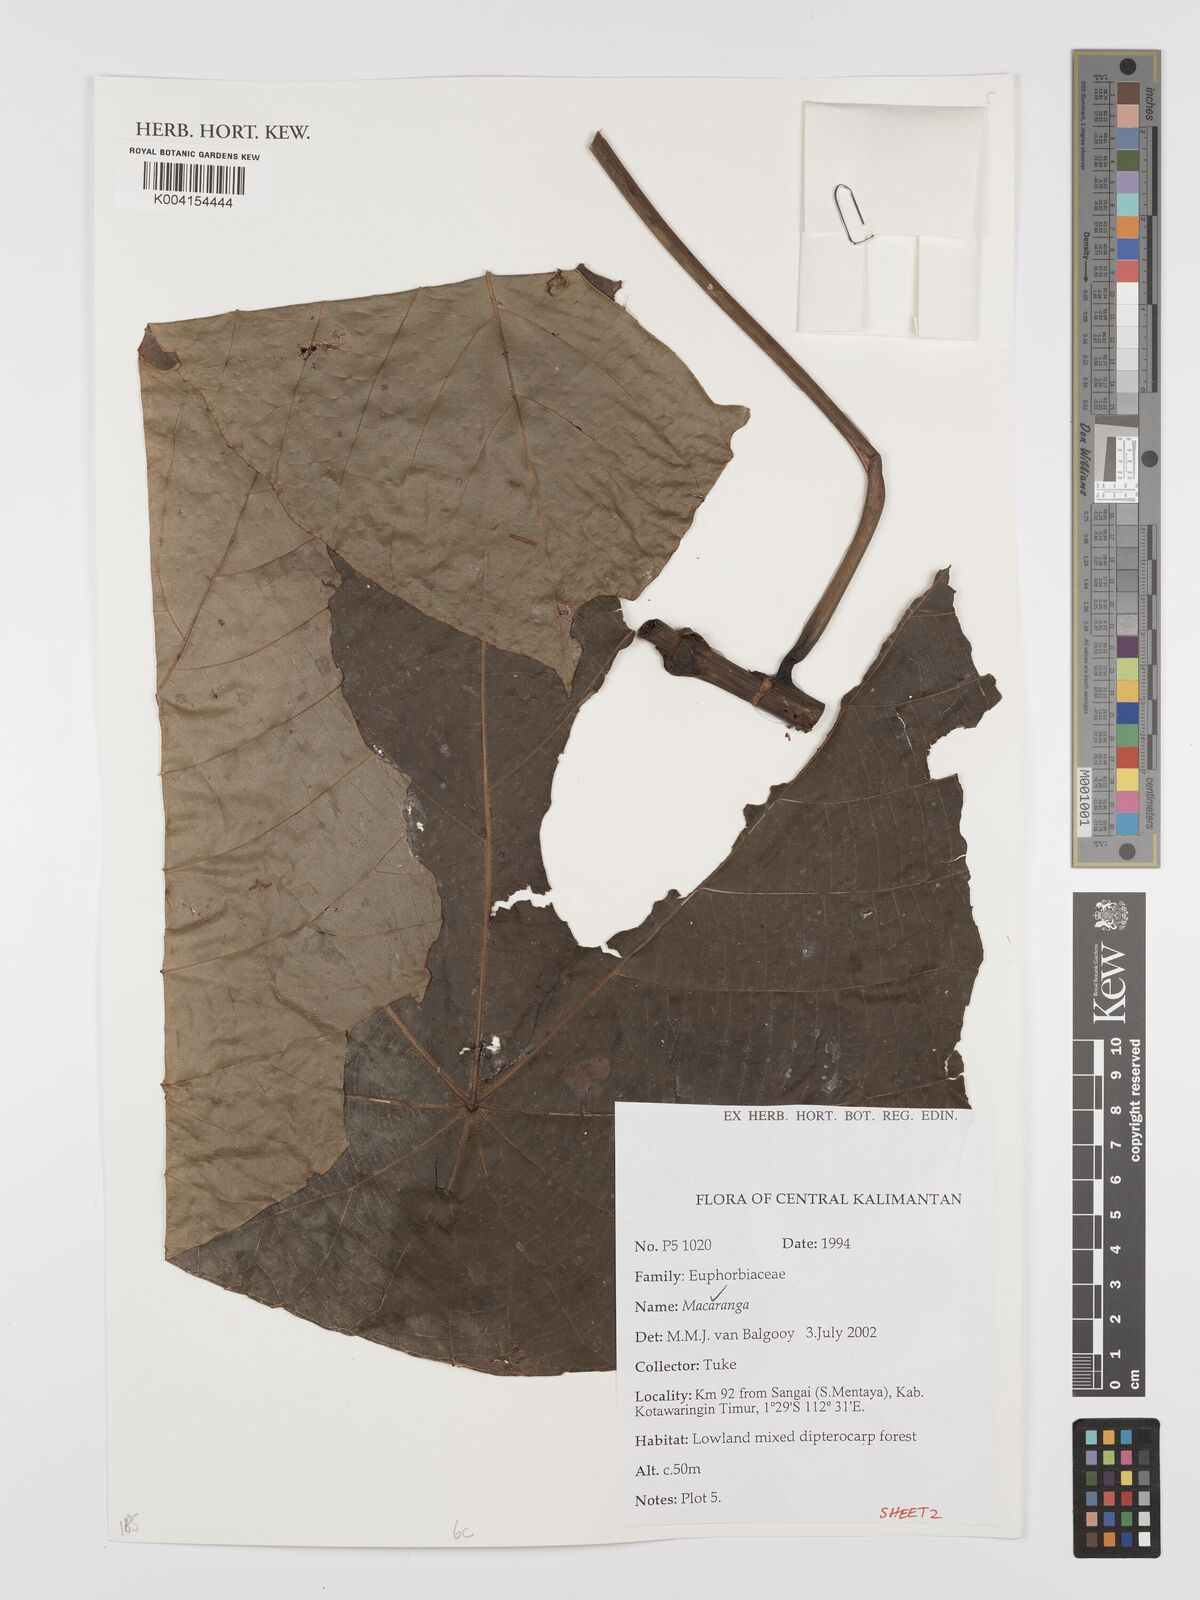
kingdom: Plantae
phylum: Tracheophyta
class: Magnoliopsida
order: Malpighiales
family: Euphorbiaceae
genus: Macaranga
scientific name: Macaranga
